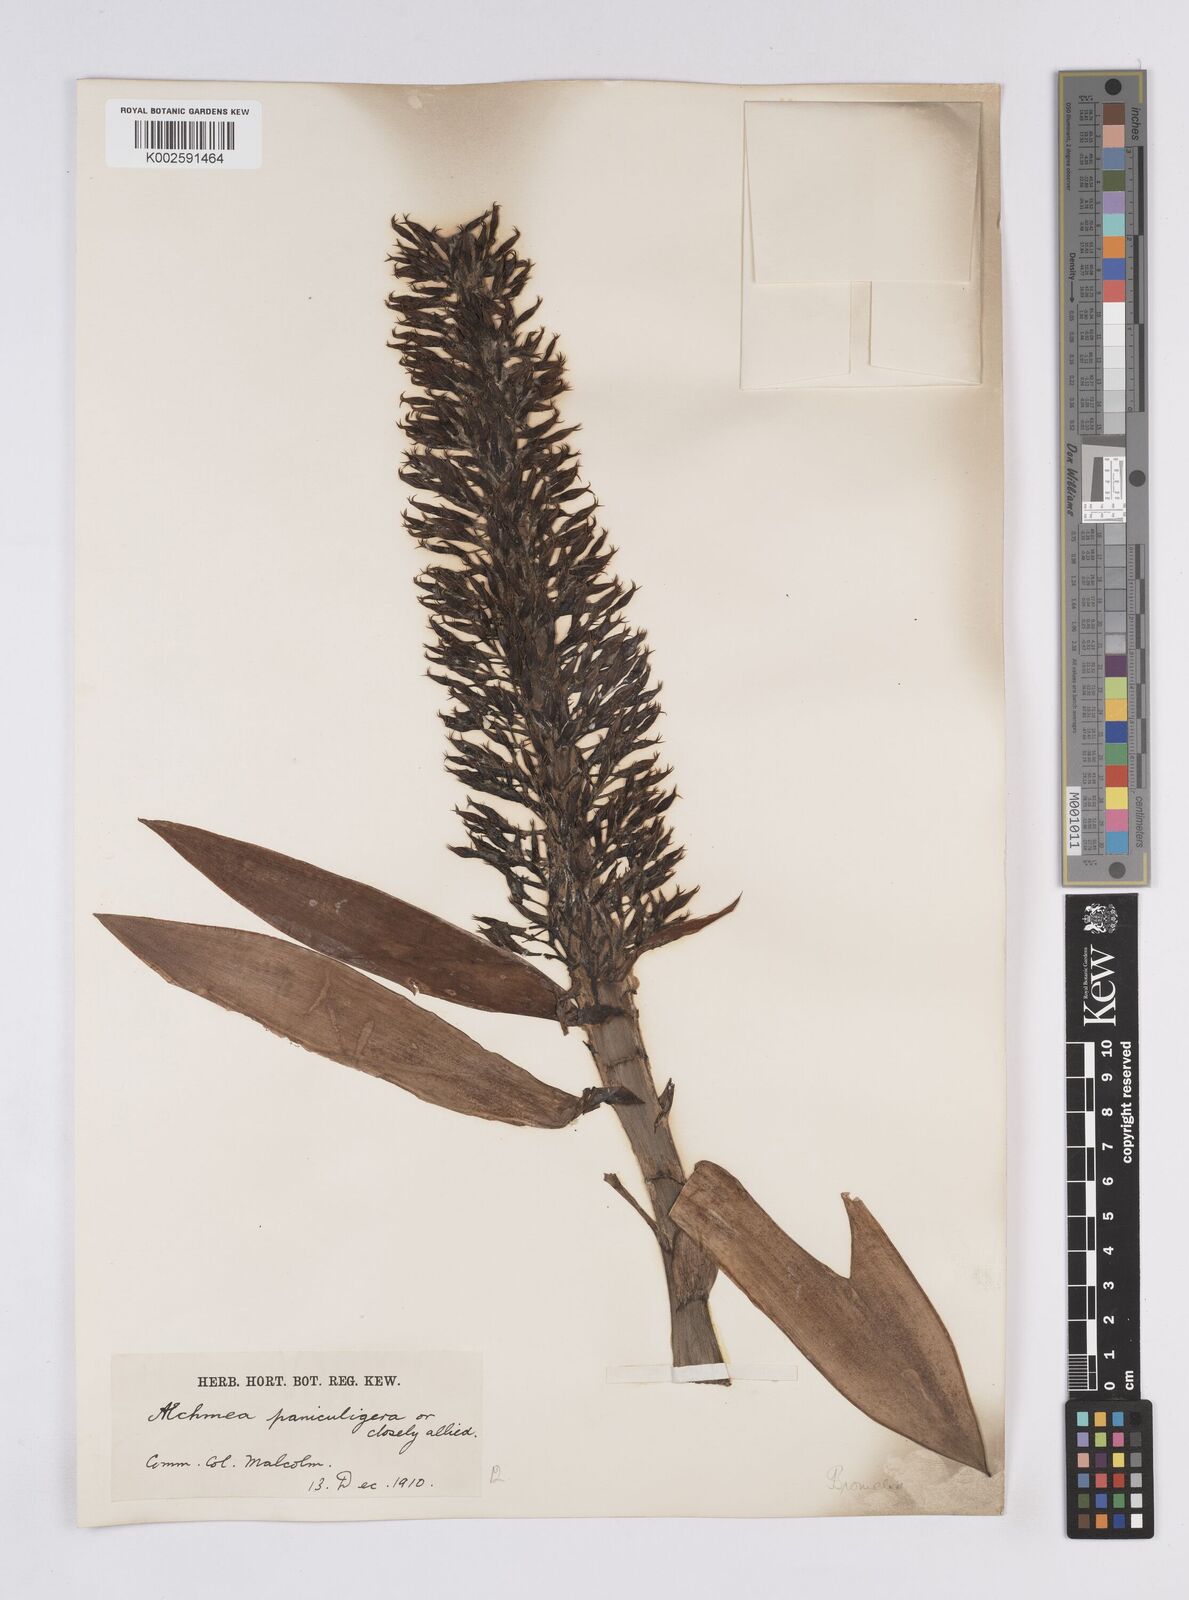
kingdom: Plantae
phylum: Tracheophyta
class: Liliopsida
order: Poales
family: Bromeliaceae
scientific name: Bromeliaceae
